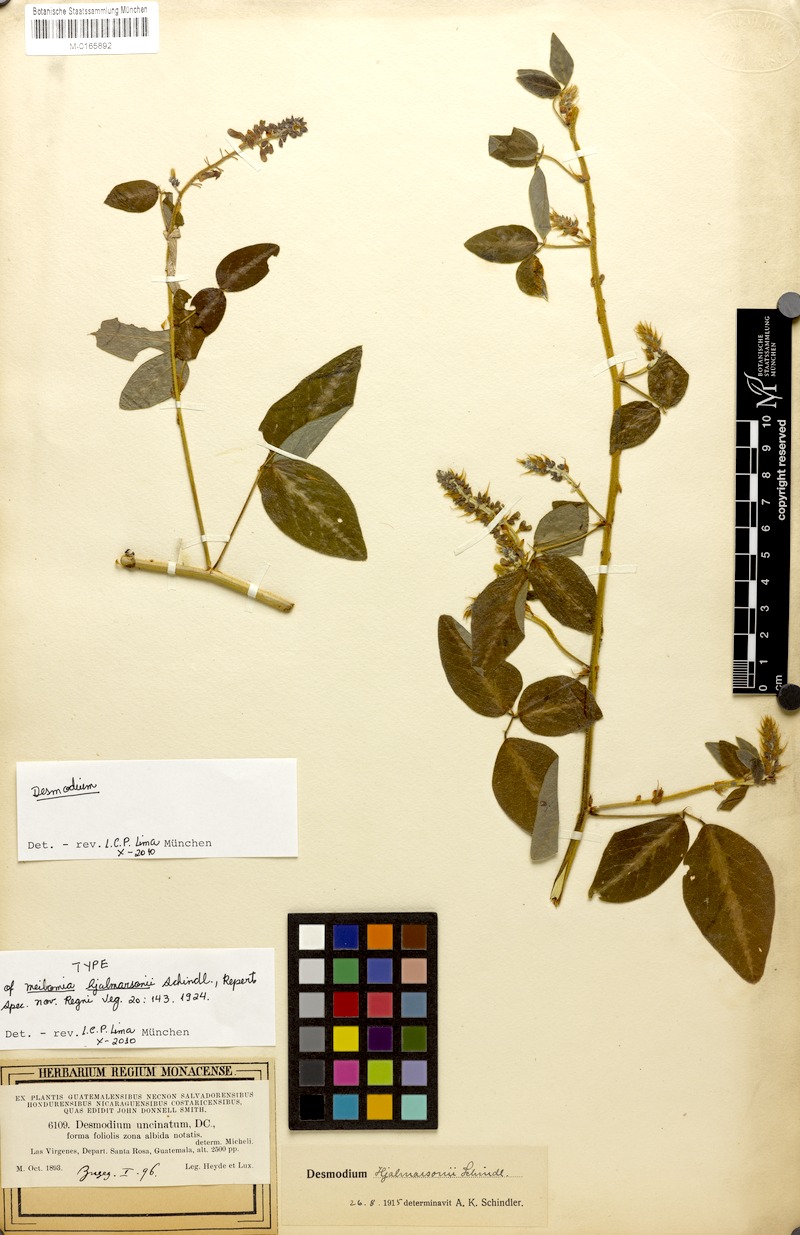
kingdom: Plantae
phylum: Tracheophyta
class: Magnoliopsida
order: Fabales
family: Fabaceae
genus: Desmodium
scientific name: Desmodium uncinatum
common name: Silverleaf desmodium
